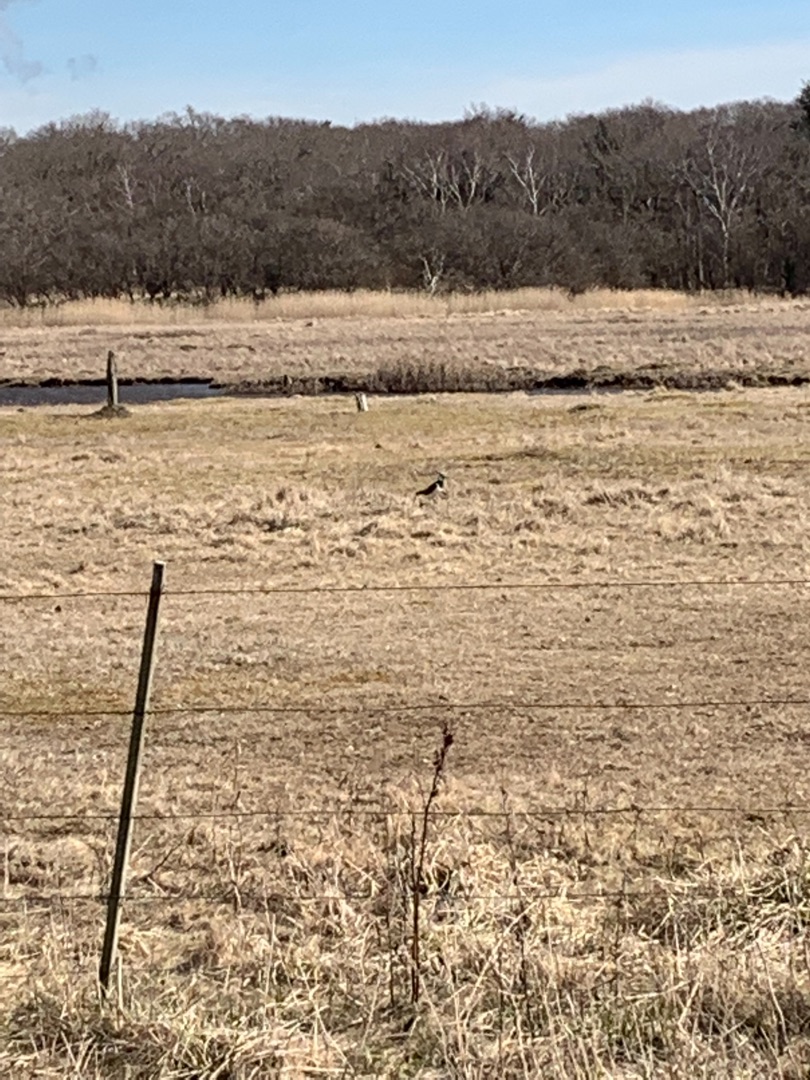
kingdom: Animalia
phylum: Chordata
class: Aves
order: Charadriiformes
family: Charadriidae
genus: Vanellus
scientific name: Vanellus vanellus
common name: Vibe
